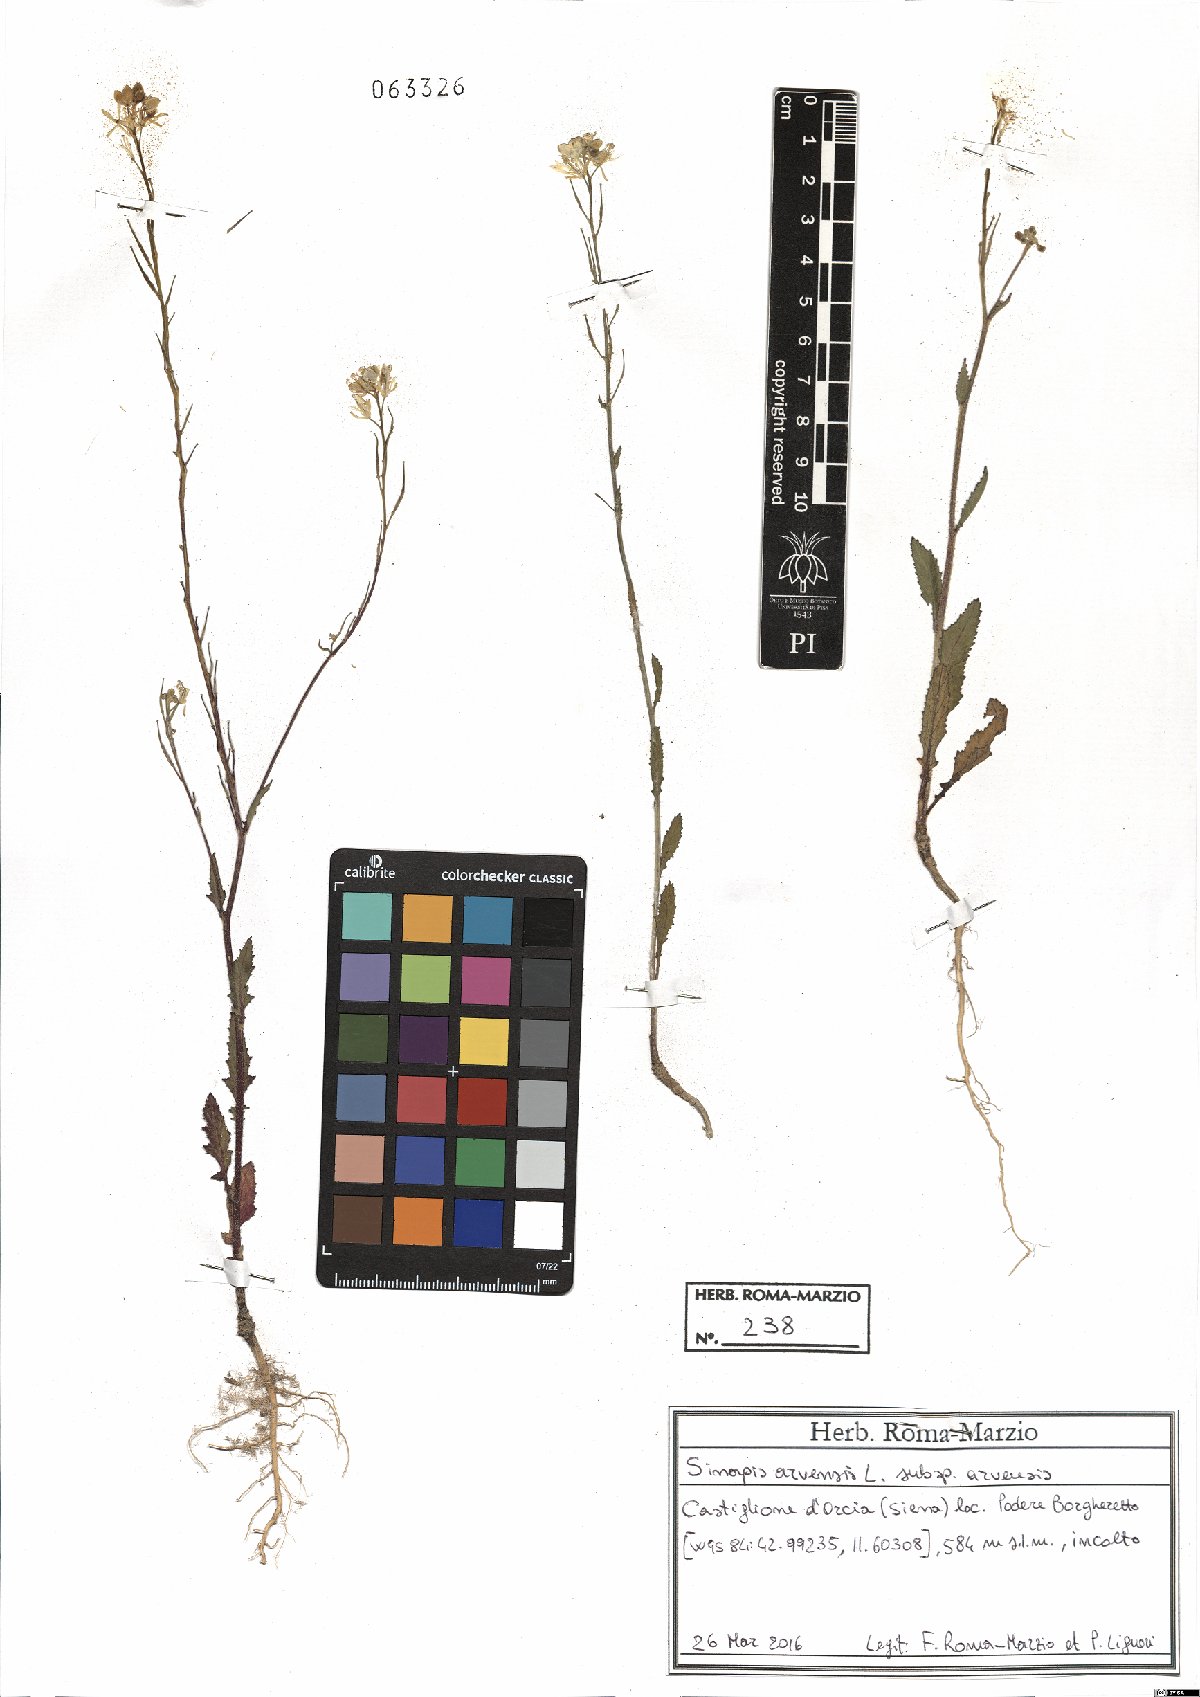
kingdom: Plantae
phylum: Tracheophyta
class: Magnoliopsida
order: Brassicales
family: Brassicaceae
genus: Sinapis
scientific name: Sinapis arvensis
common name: Charlock
